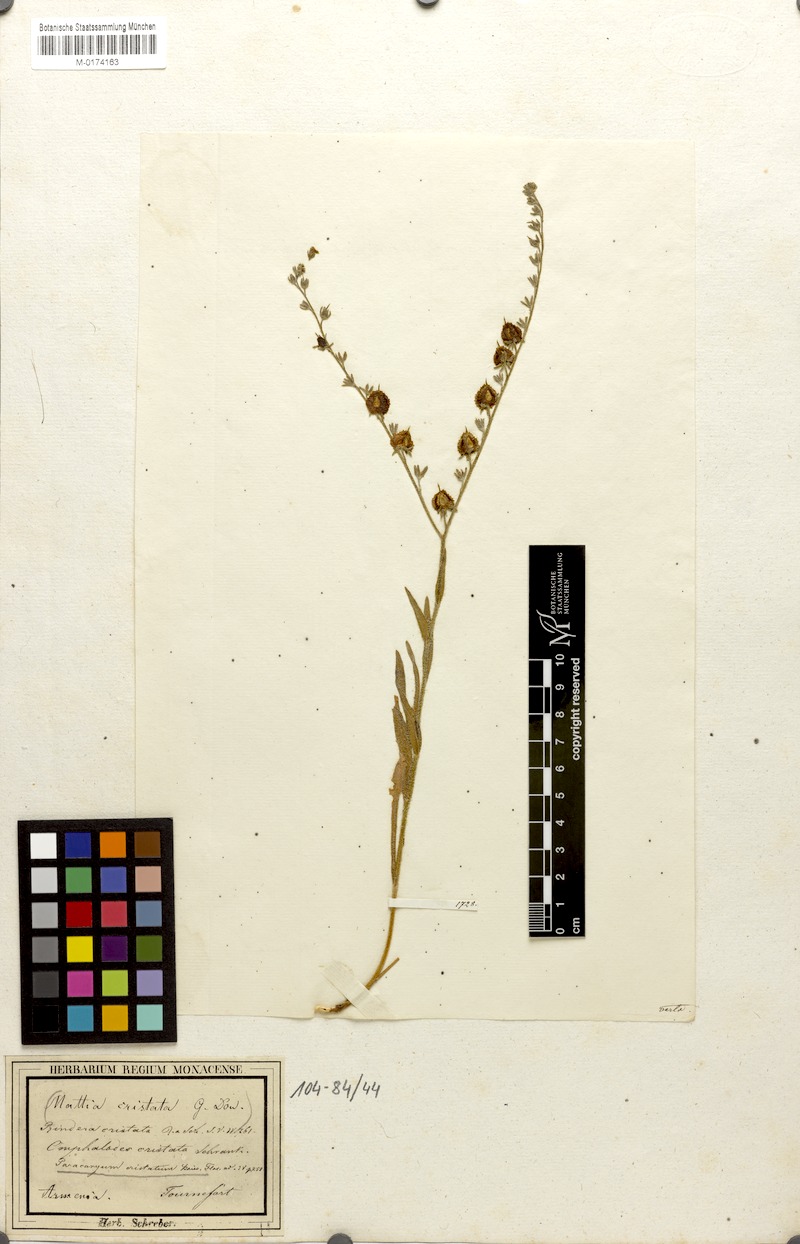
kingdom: Plantae
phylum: Tracheophyta
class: Magnoliopsida
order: Boraginales
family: Boraginaceae
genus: Paracaryum
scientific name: Paracaryum cristatum
